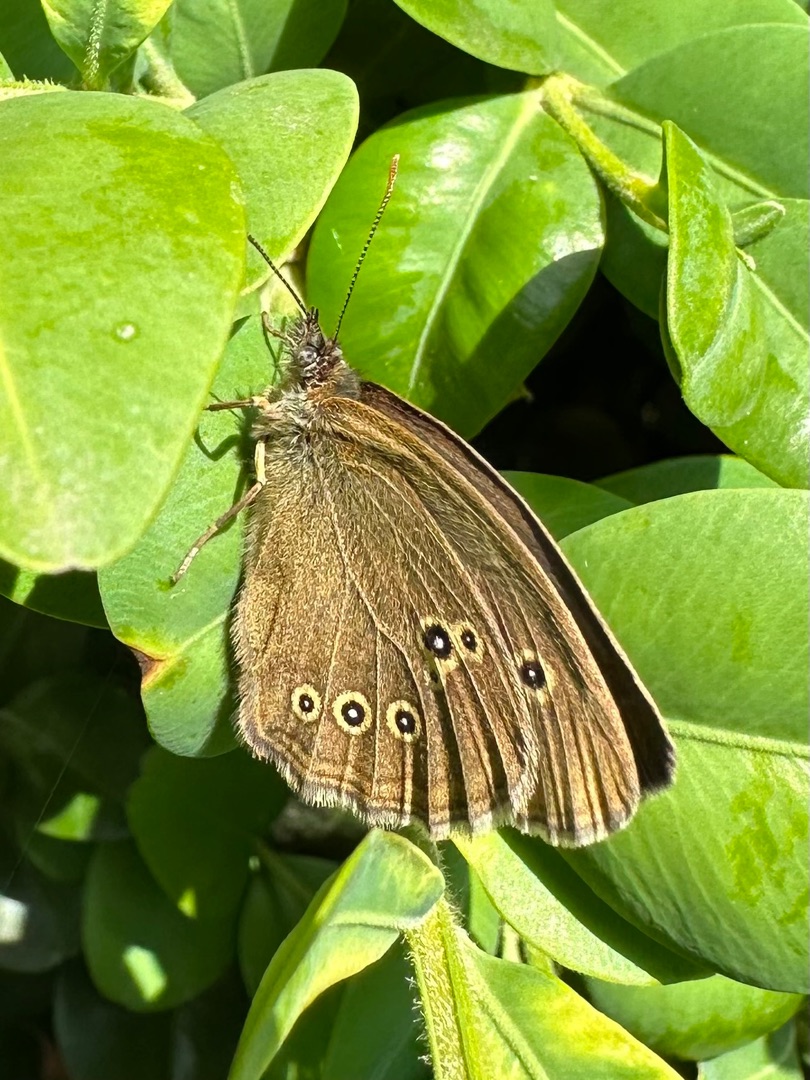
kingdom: Animalia
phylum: Arthropoda
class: Insecta
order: Lepidoptera
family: Nymphalidae
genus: Aphantopus
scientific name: Aphantopus hyperantus
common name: Engrandøje
